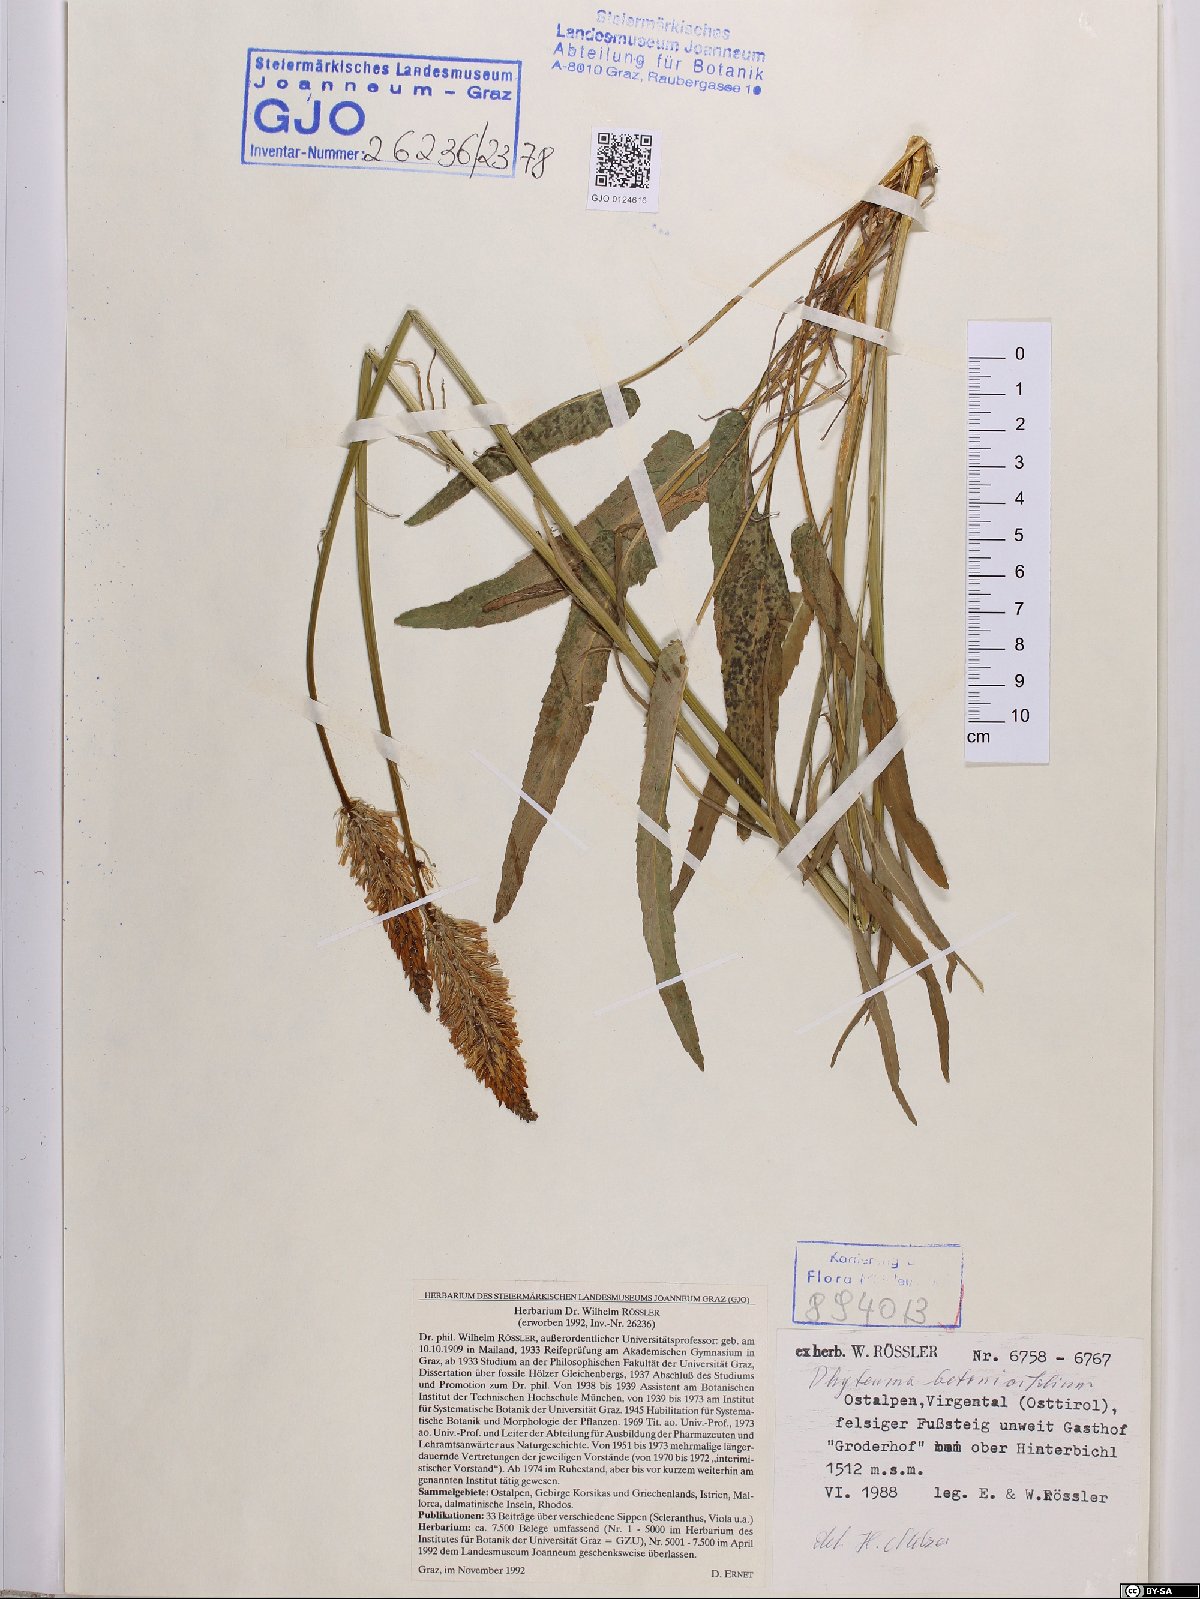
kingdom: Plantae
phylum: Tracheophyta
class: Magnoliopsida
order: Asterales
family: Campanulaceae
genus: Phyteuma
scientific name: Phyteuma betonicifolium
